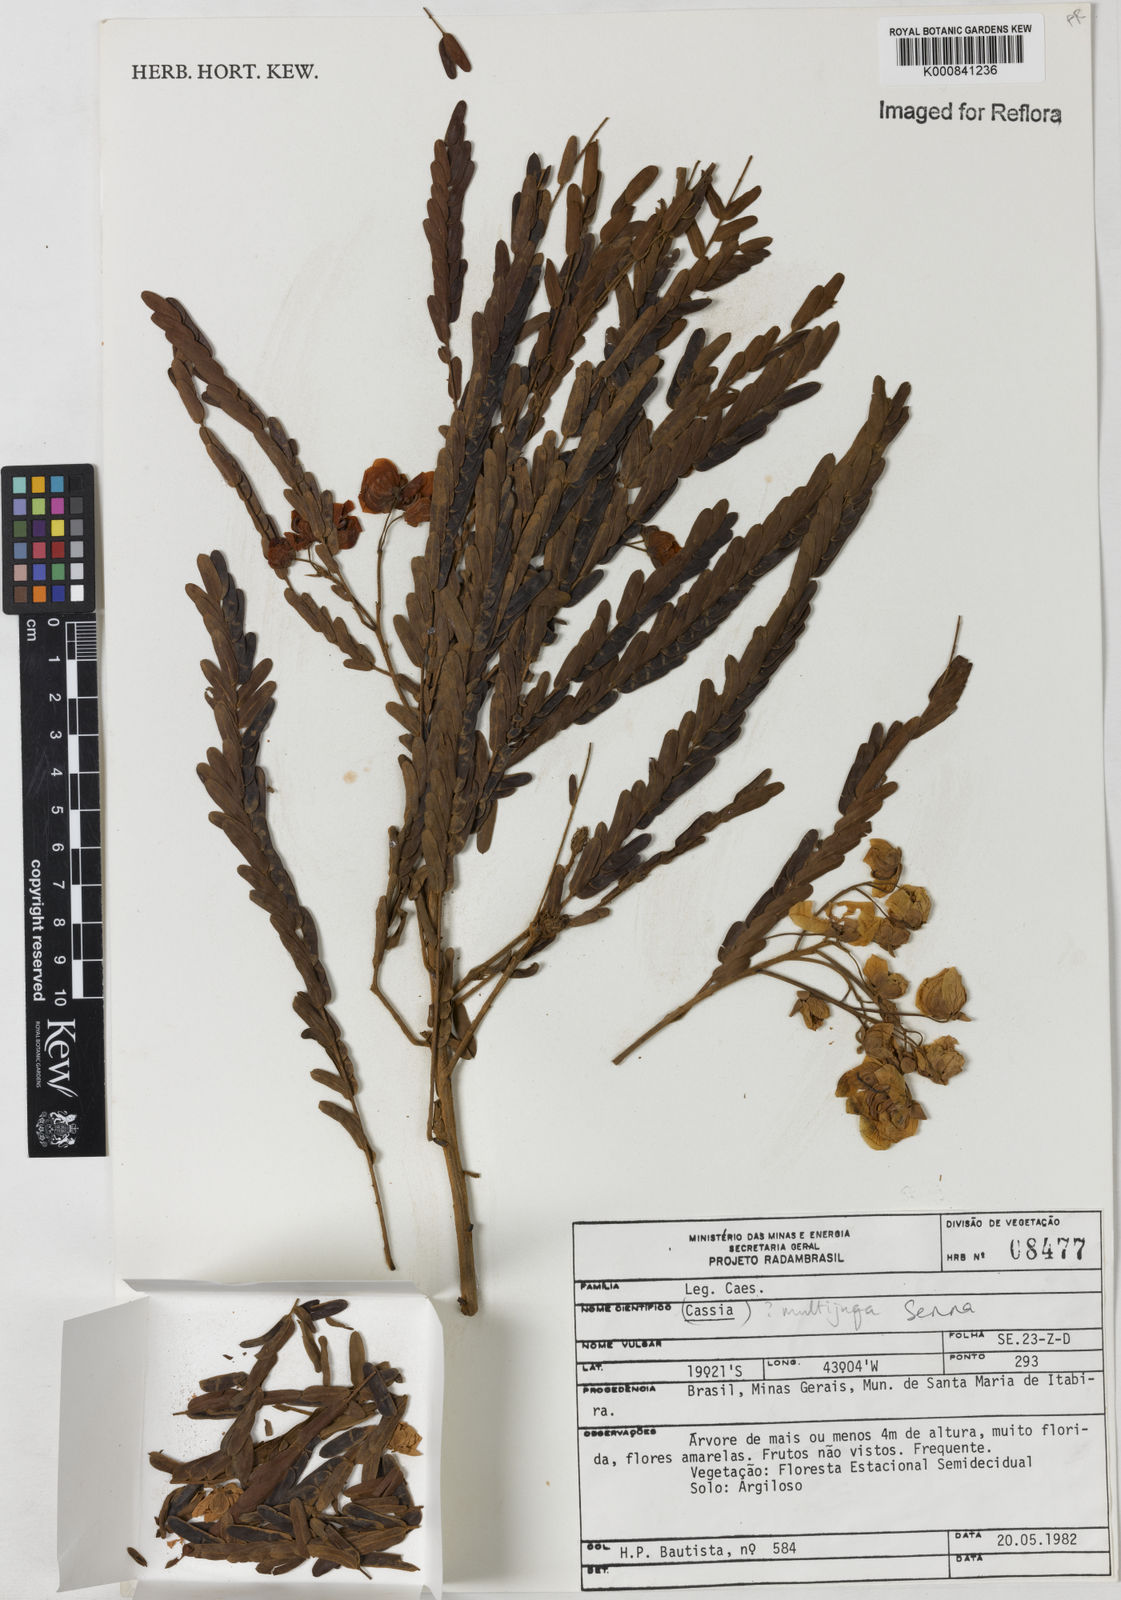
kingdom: Plantae
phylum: Tracheophyta
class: Magnoliopsida
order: Fabales
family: Fabaceae
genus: Senna
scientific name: Senna
